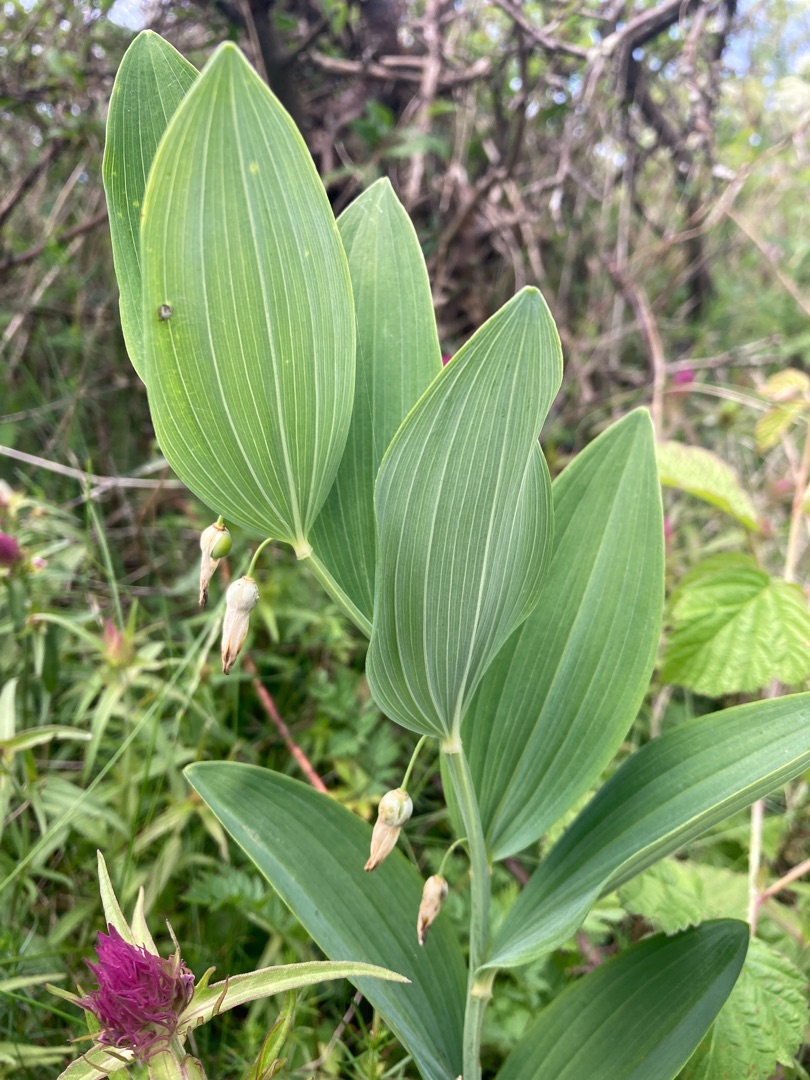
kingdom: Plantae
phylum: Tracheophyta
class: Liliopsida
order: Asparagales
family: Asparagaceae
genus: Polygonatum
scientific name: Polygonatum odoratum
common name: Kantet konval
